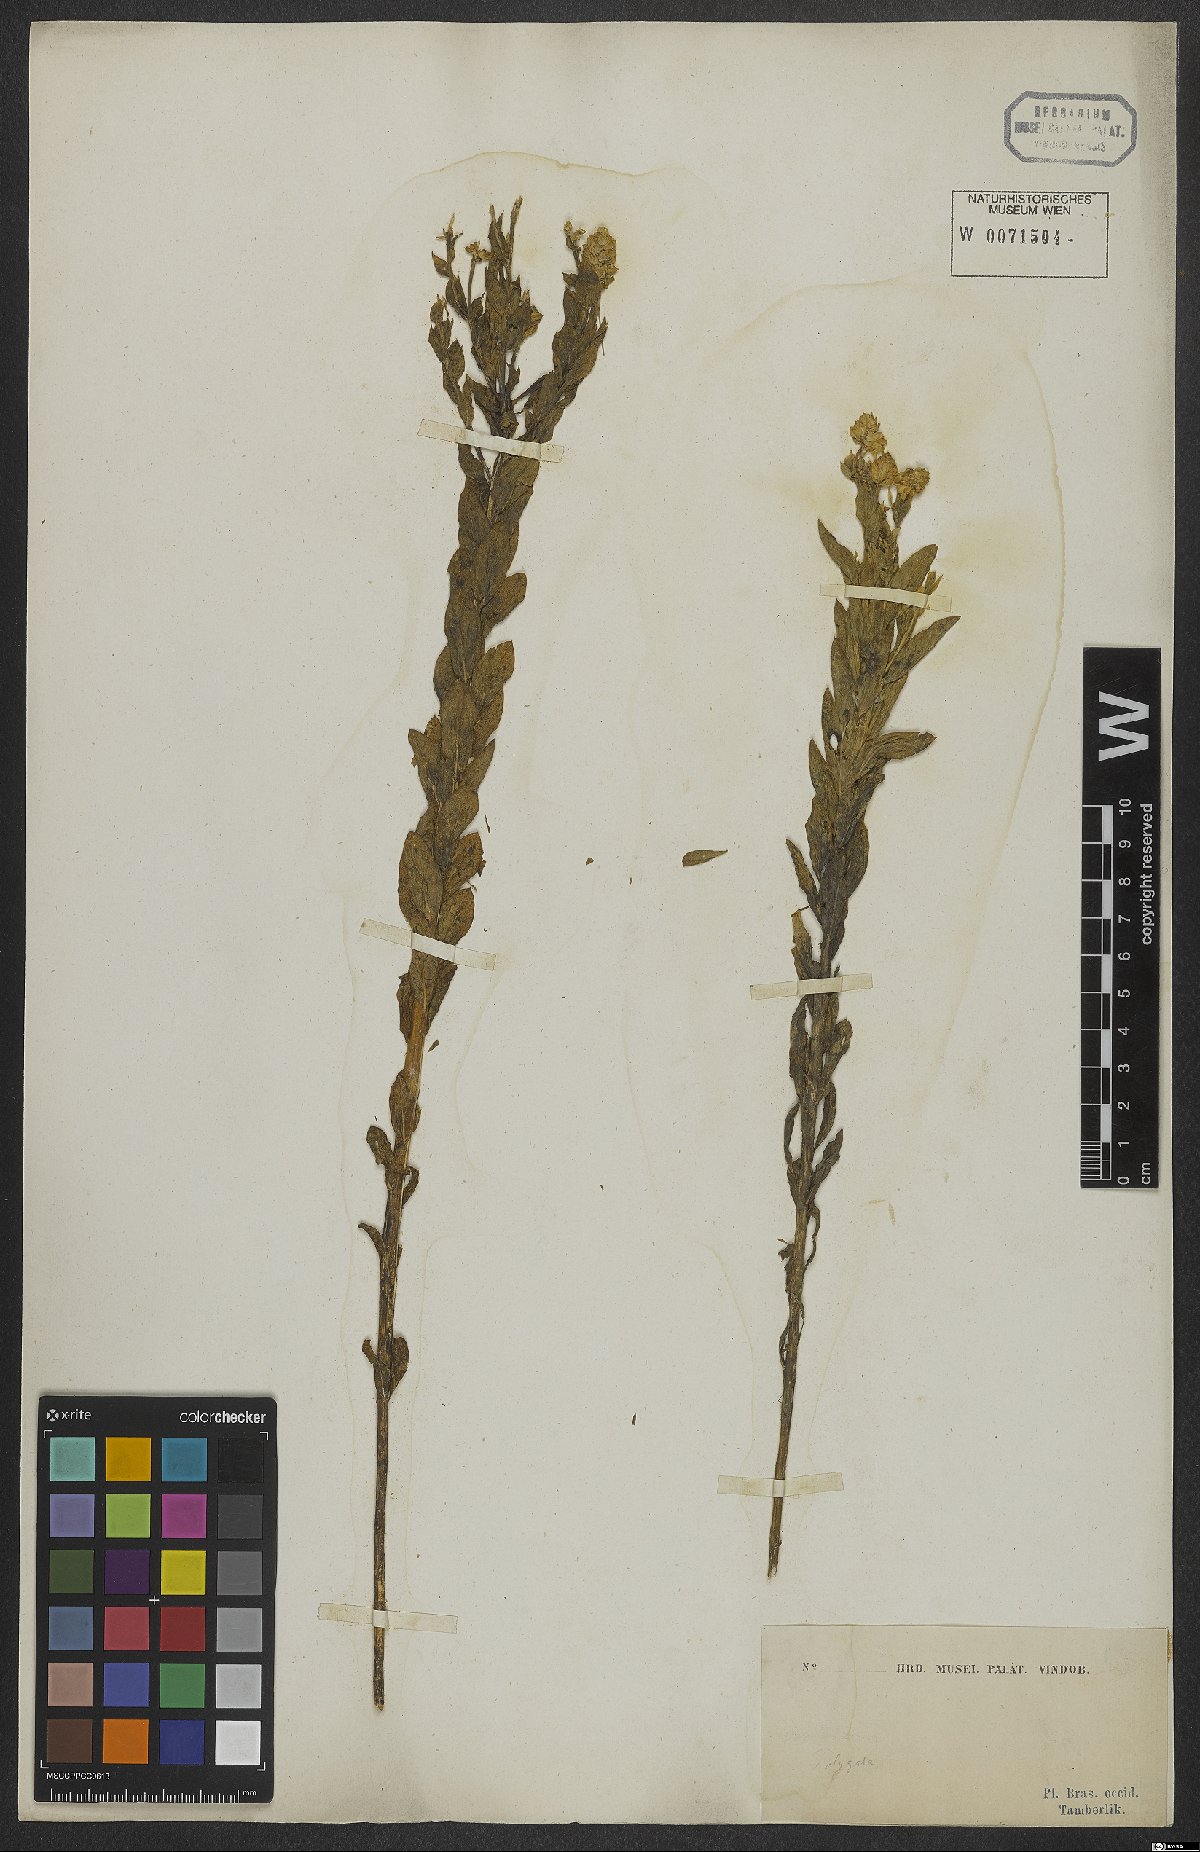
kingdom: Plantae
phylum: Tracheophyta
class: Magnoliopsida
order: Fabales
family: Polygalaceae
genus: Polygala
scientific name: Polygala bracteata
